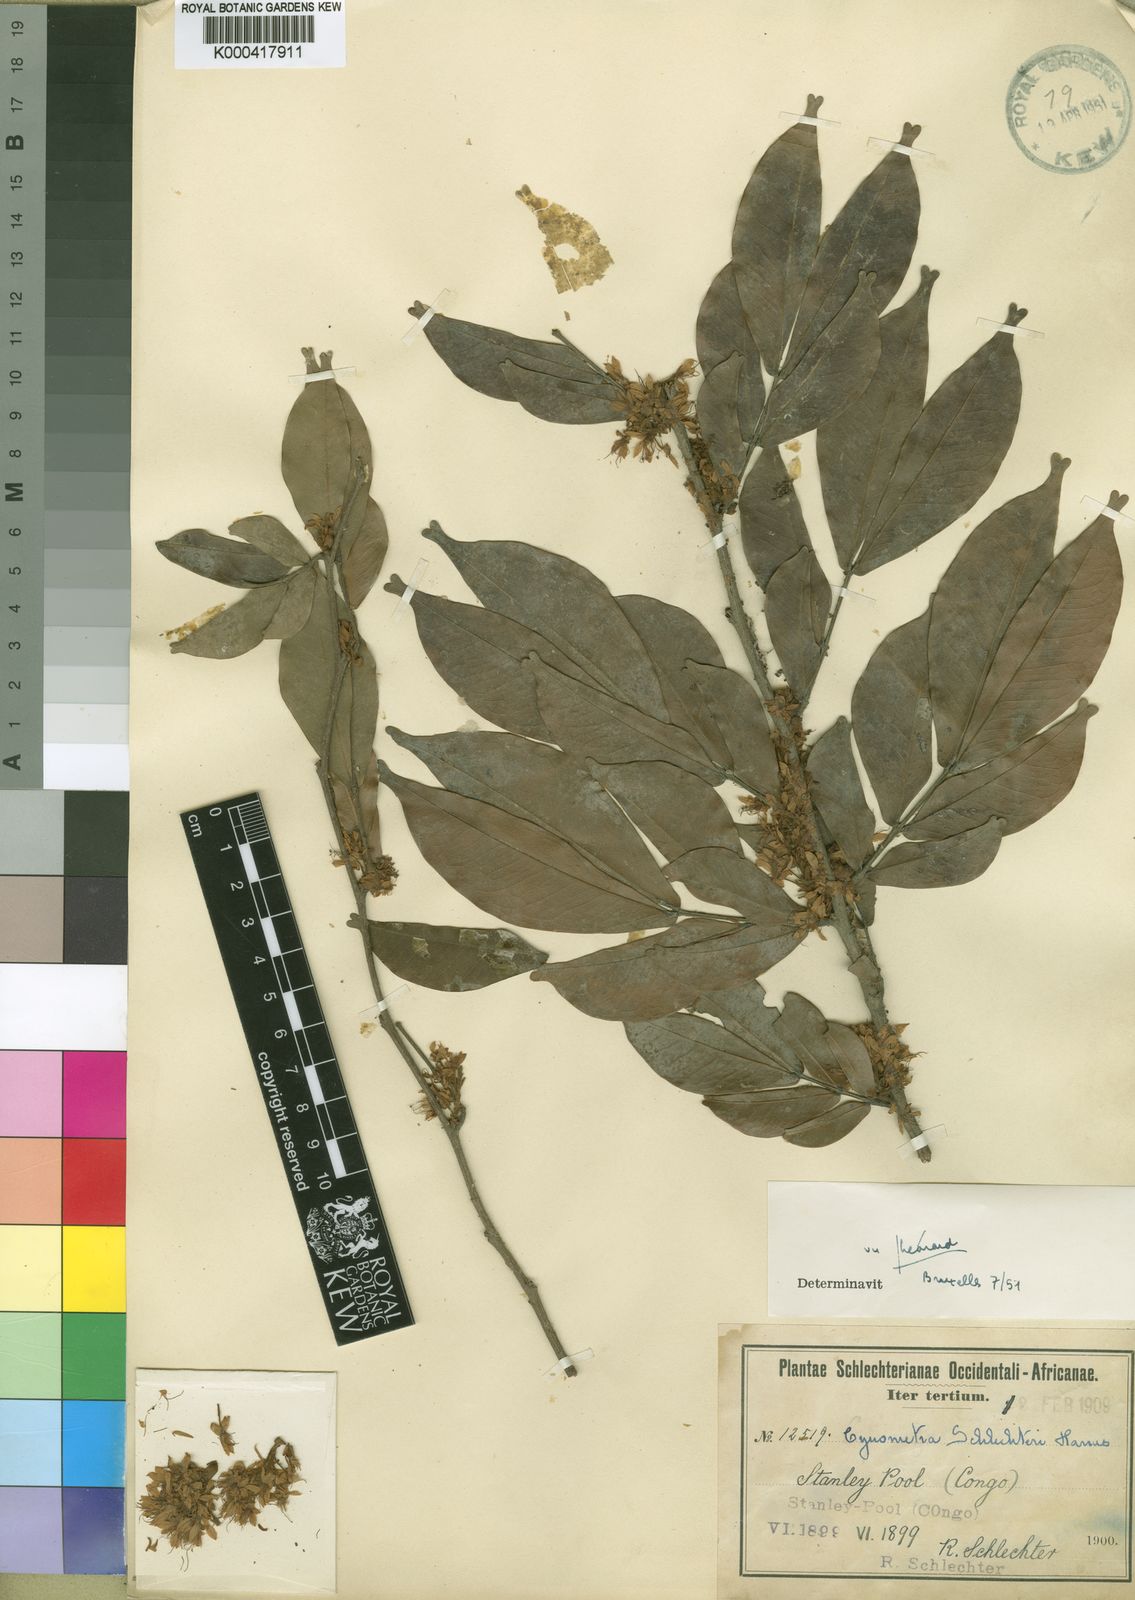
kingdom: Plantae
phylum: Tracheophyta
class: Magnoliopsida
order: Fabales
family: Fabaceae
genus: Cynometra
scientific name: Cynometra schlechteri
